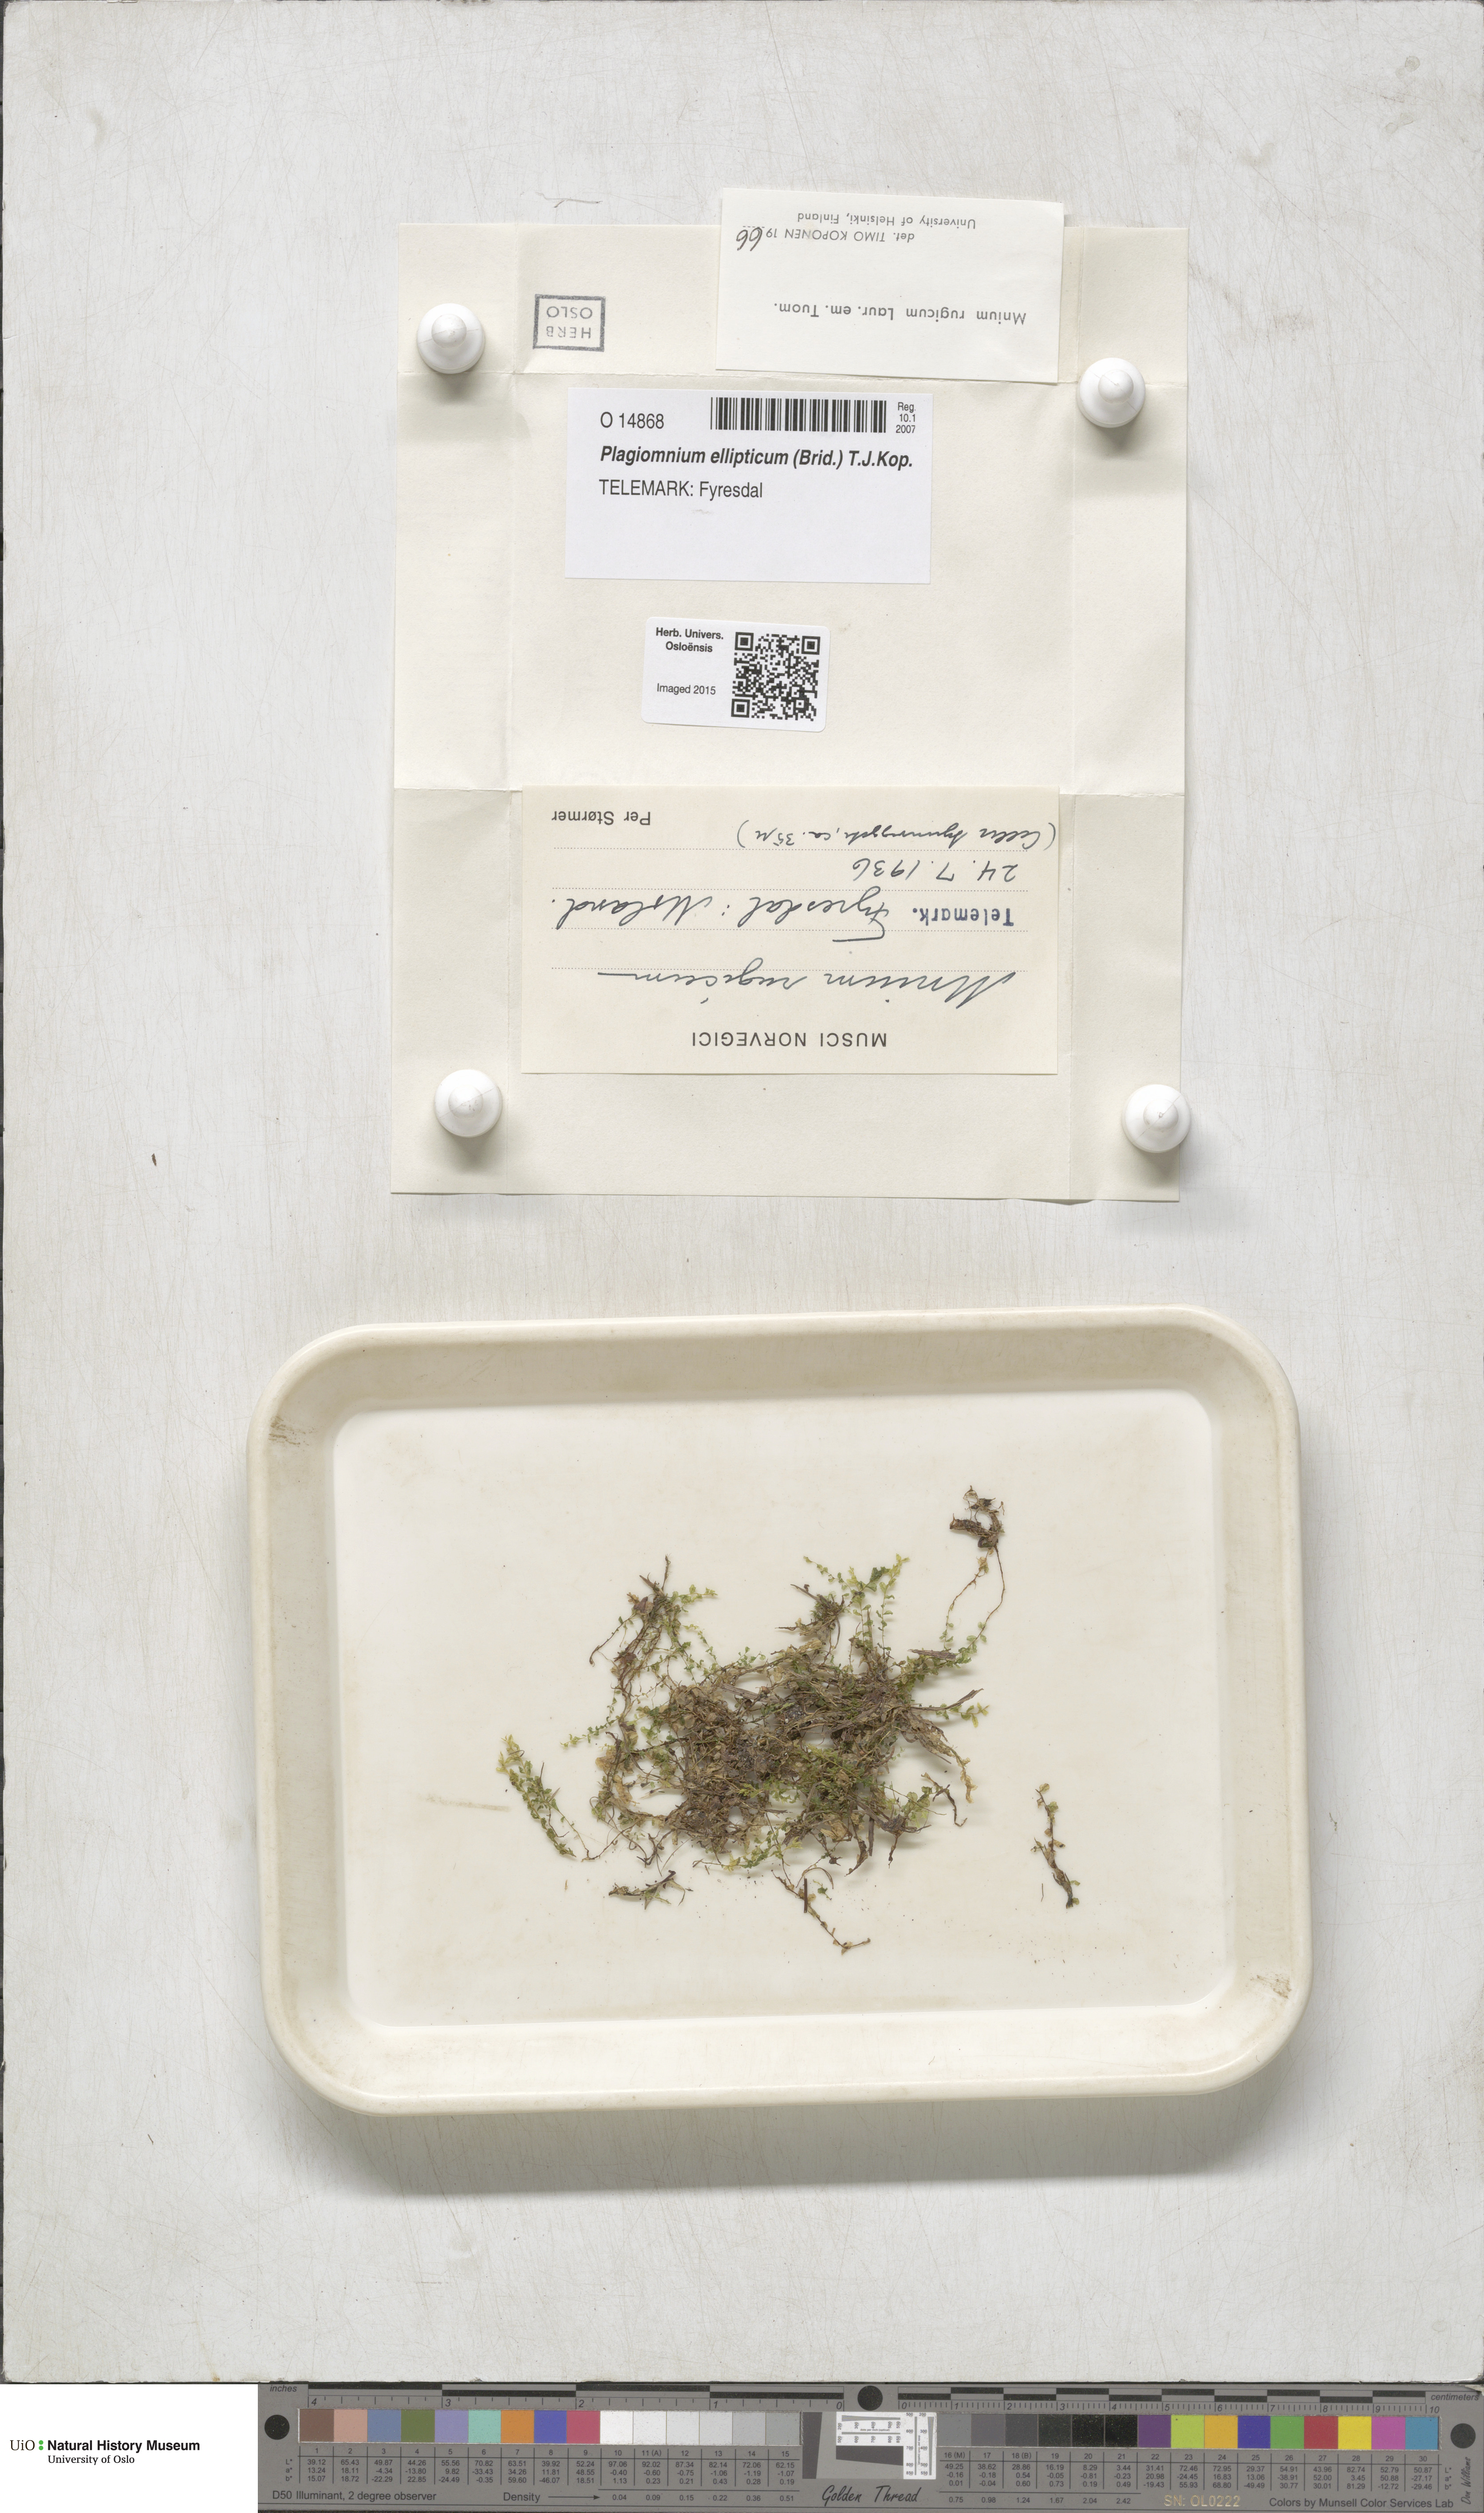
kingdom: Plantae
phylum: Bryophyta
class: Bryopsida
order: Bryales
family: Mniaceae
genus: Plagiomnium
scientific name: Plagiomnium ellipticum
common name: Marsh leafy moss
